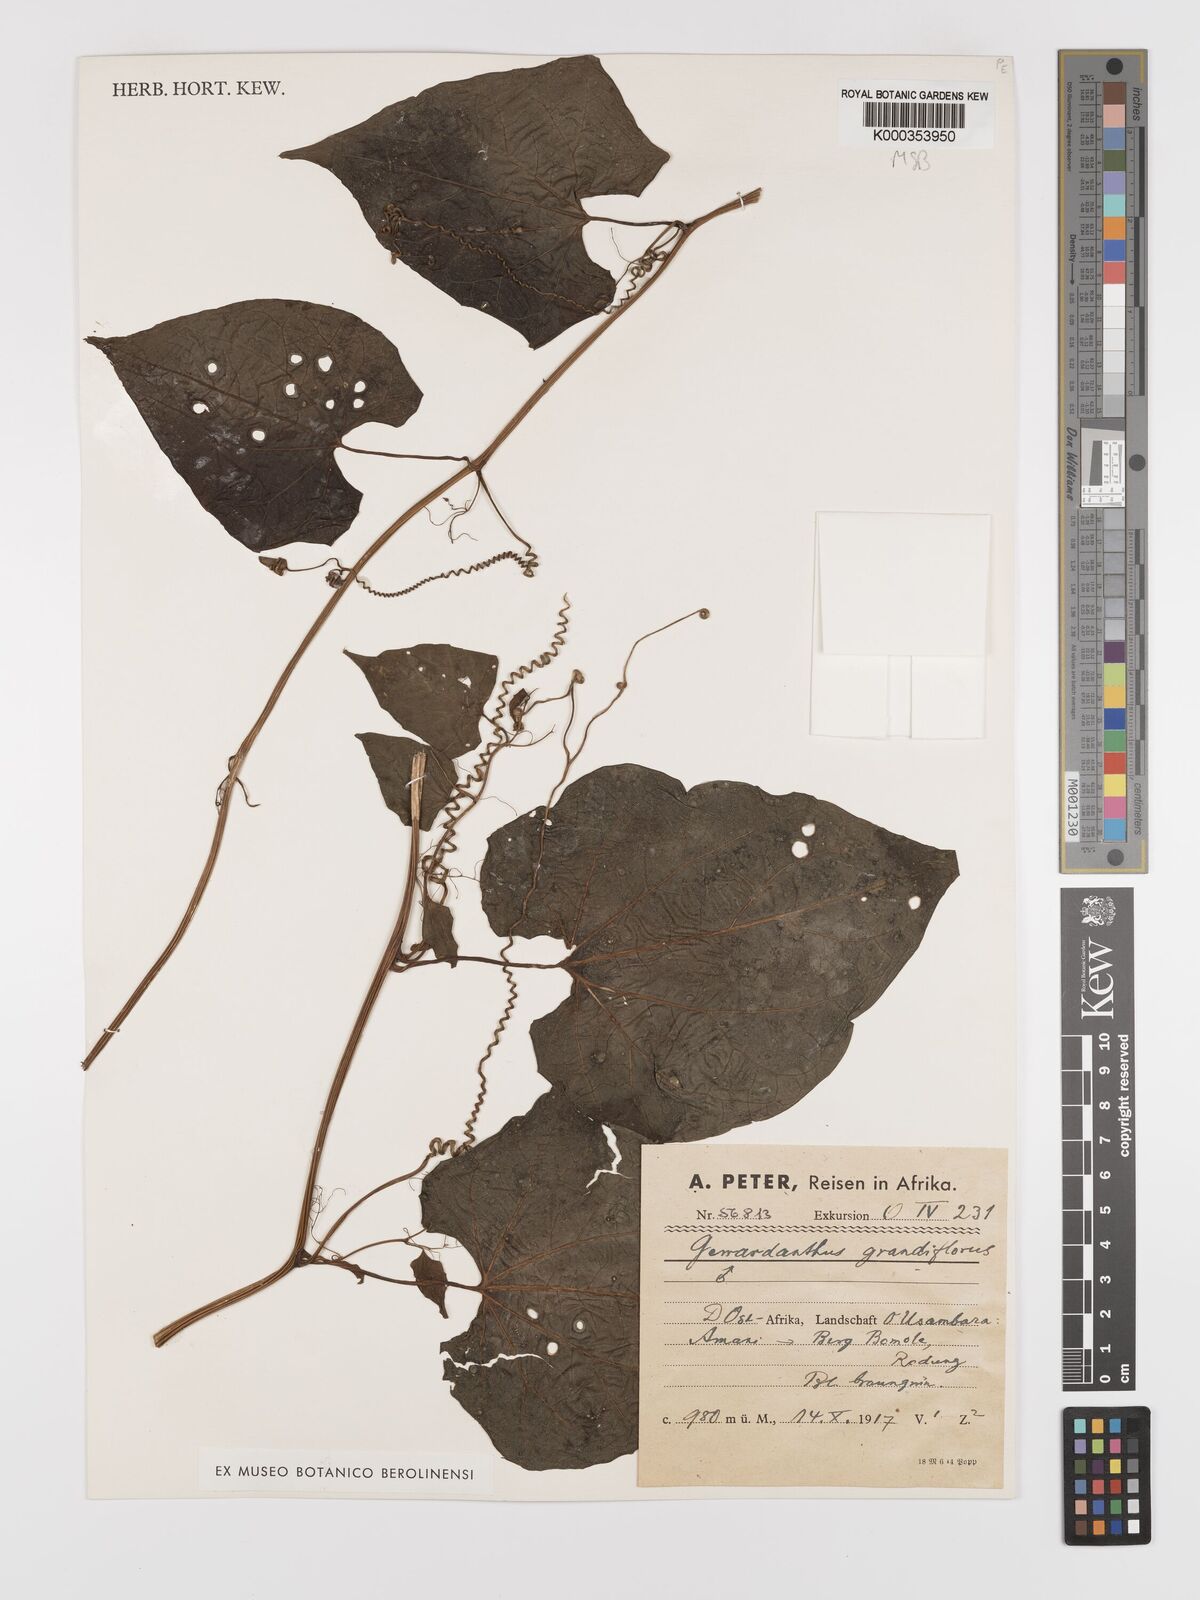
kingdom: Plantae
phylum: Tracheophyta
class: Magnoliopsida
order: Cucurbitales
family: Cucurbitaceae
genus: Gerrardanthus
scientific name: Gerrardanthus
